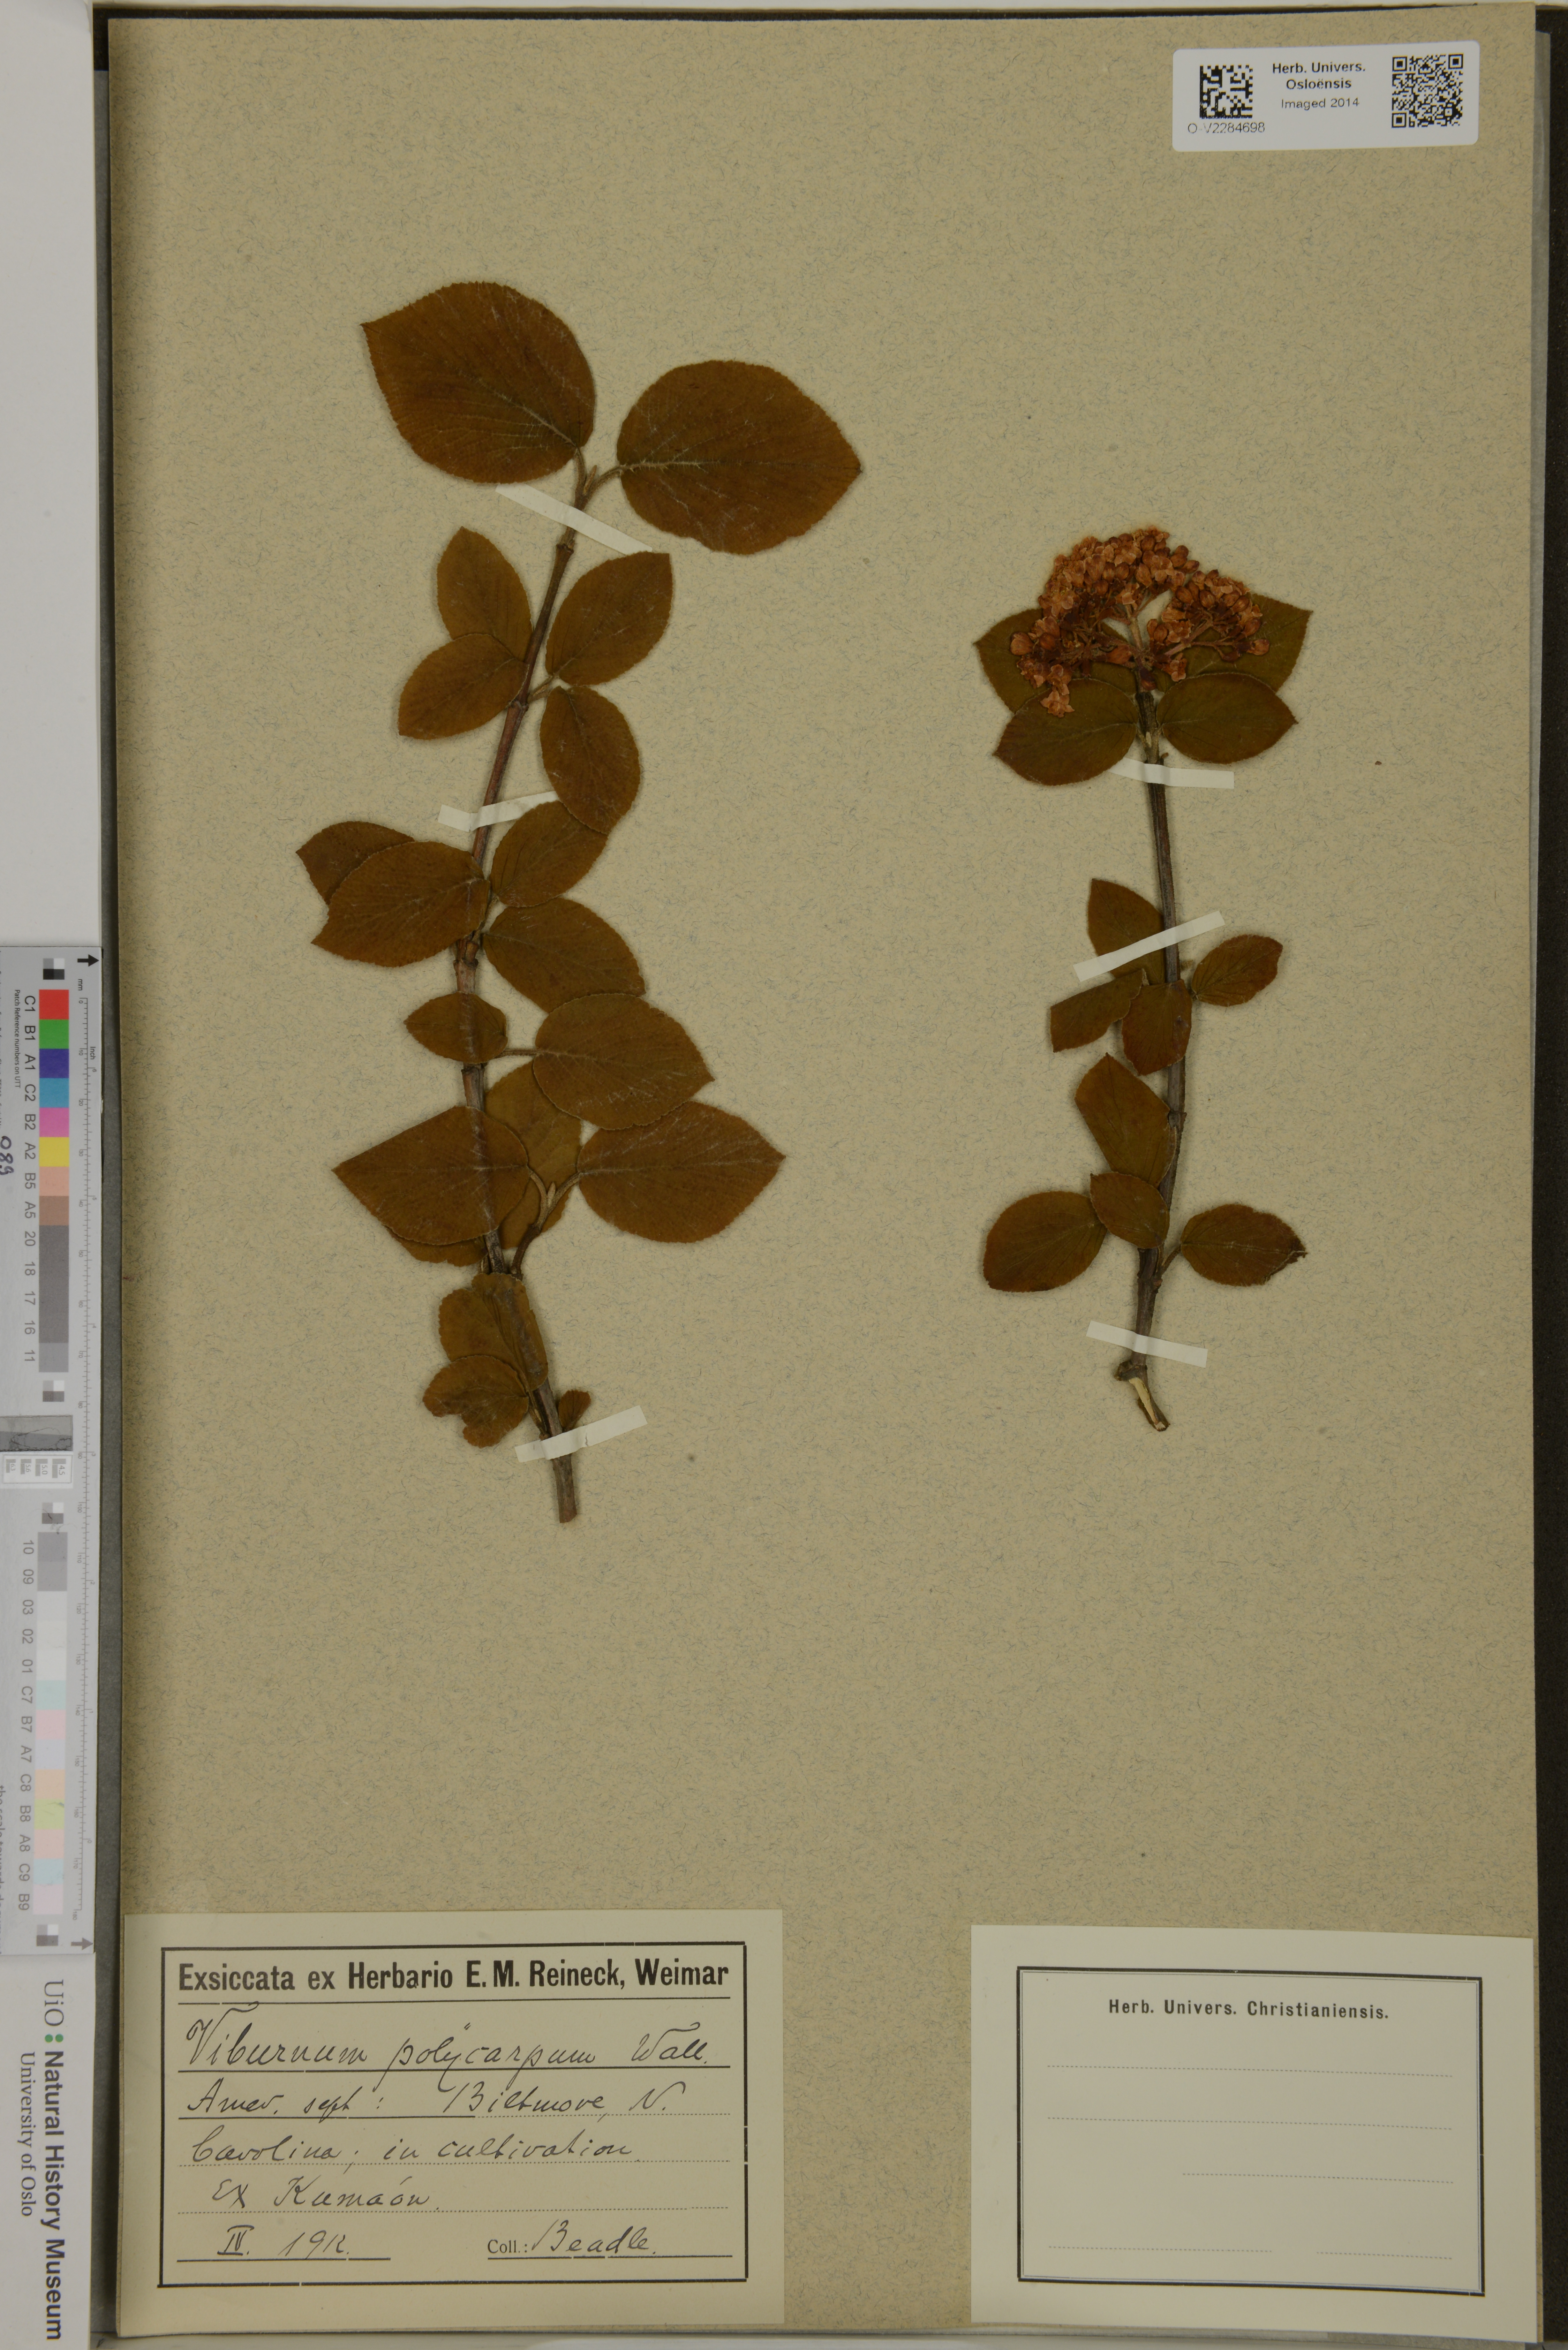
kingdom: Plantae
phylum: Tracheophyta
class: Magnoliopsida
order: Dipsacales
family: Viburnaceae
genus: Viburnum
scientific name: Viburnum cotinifolium
